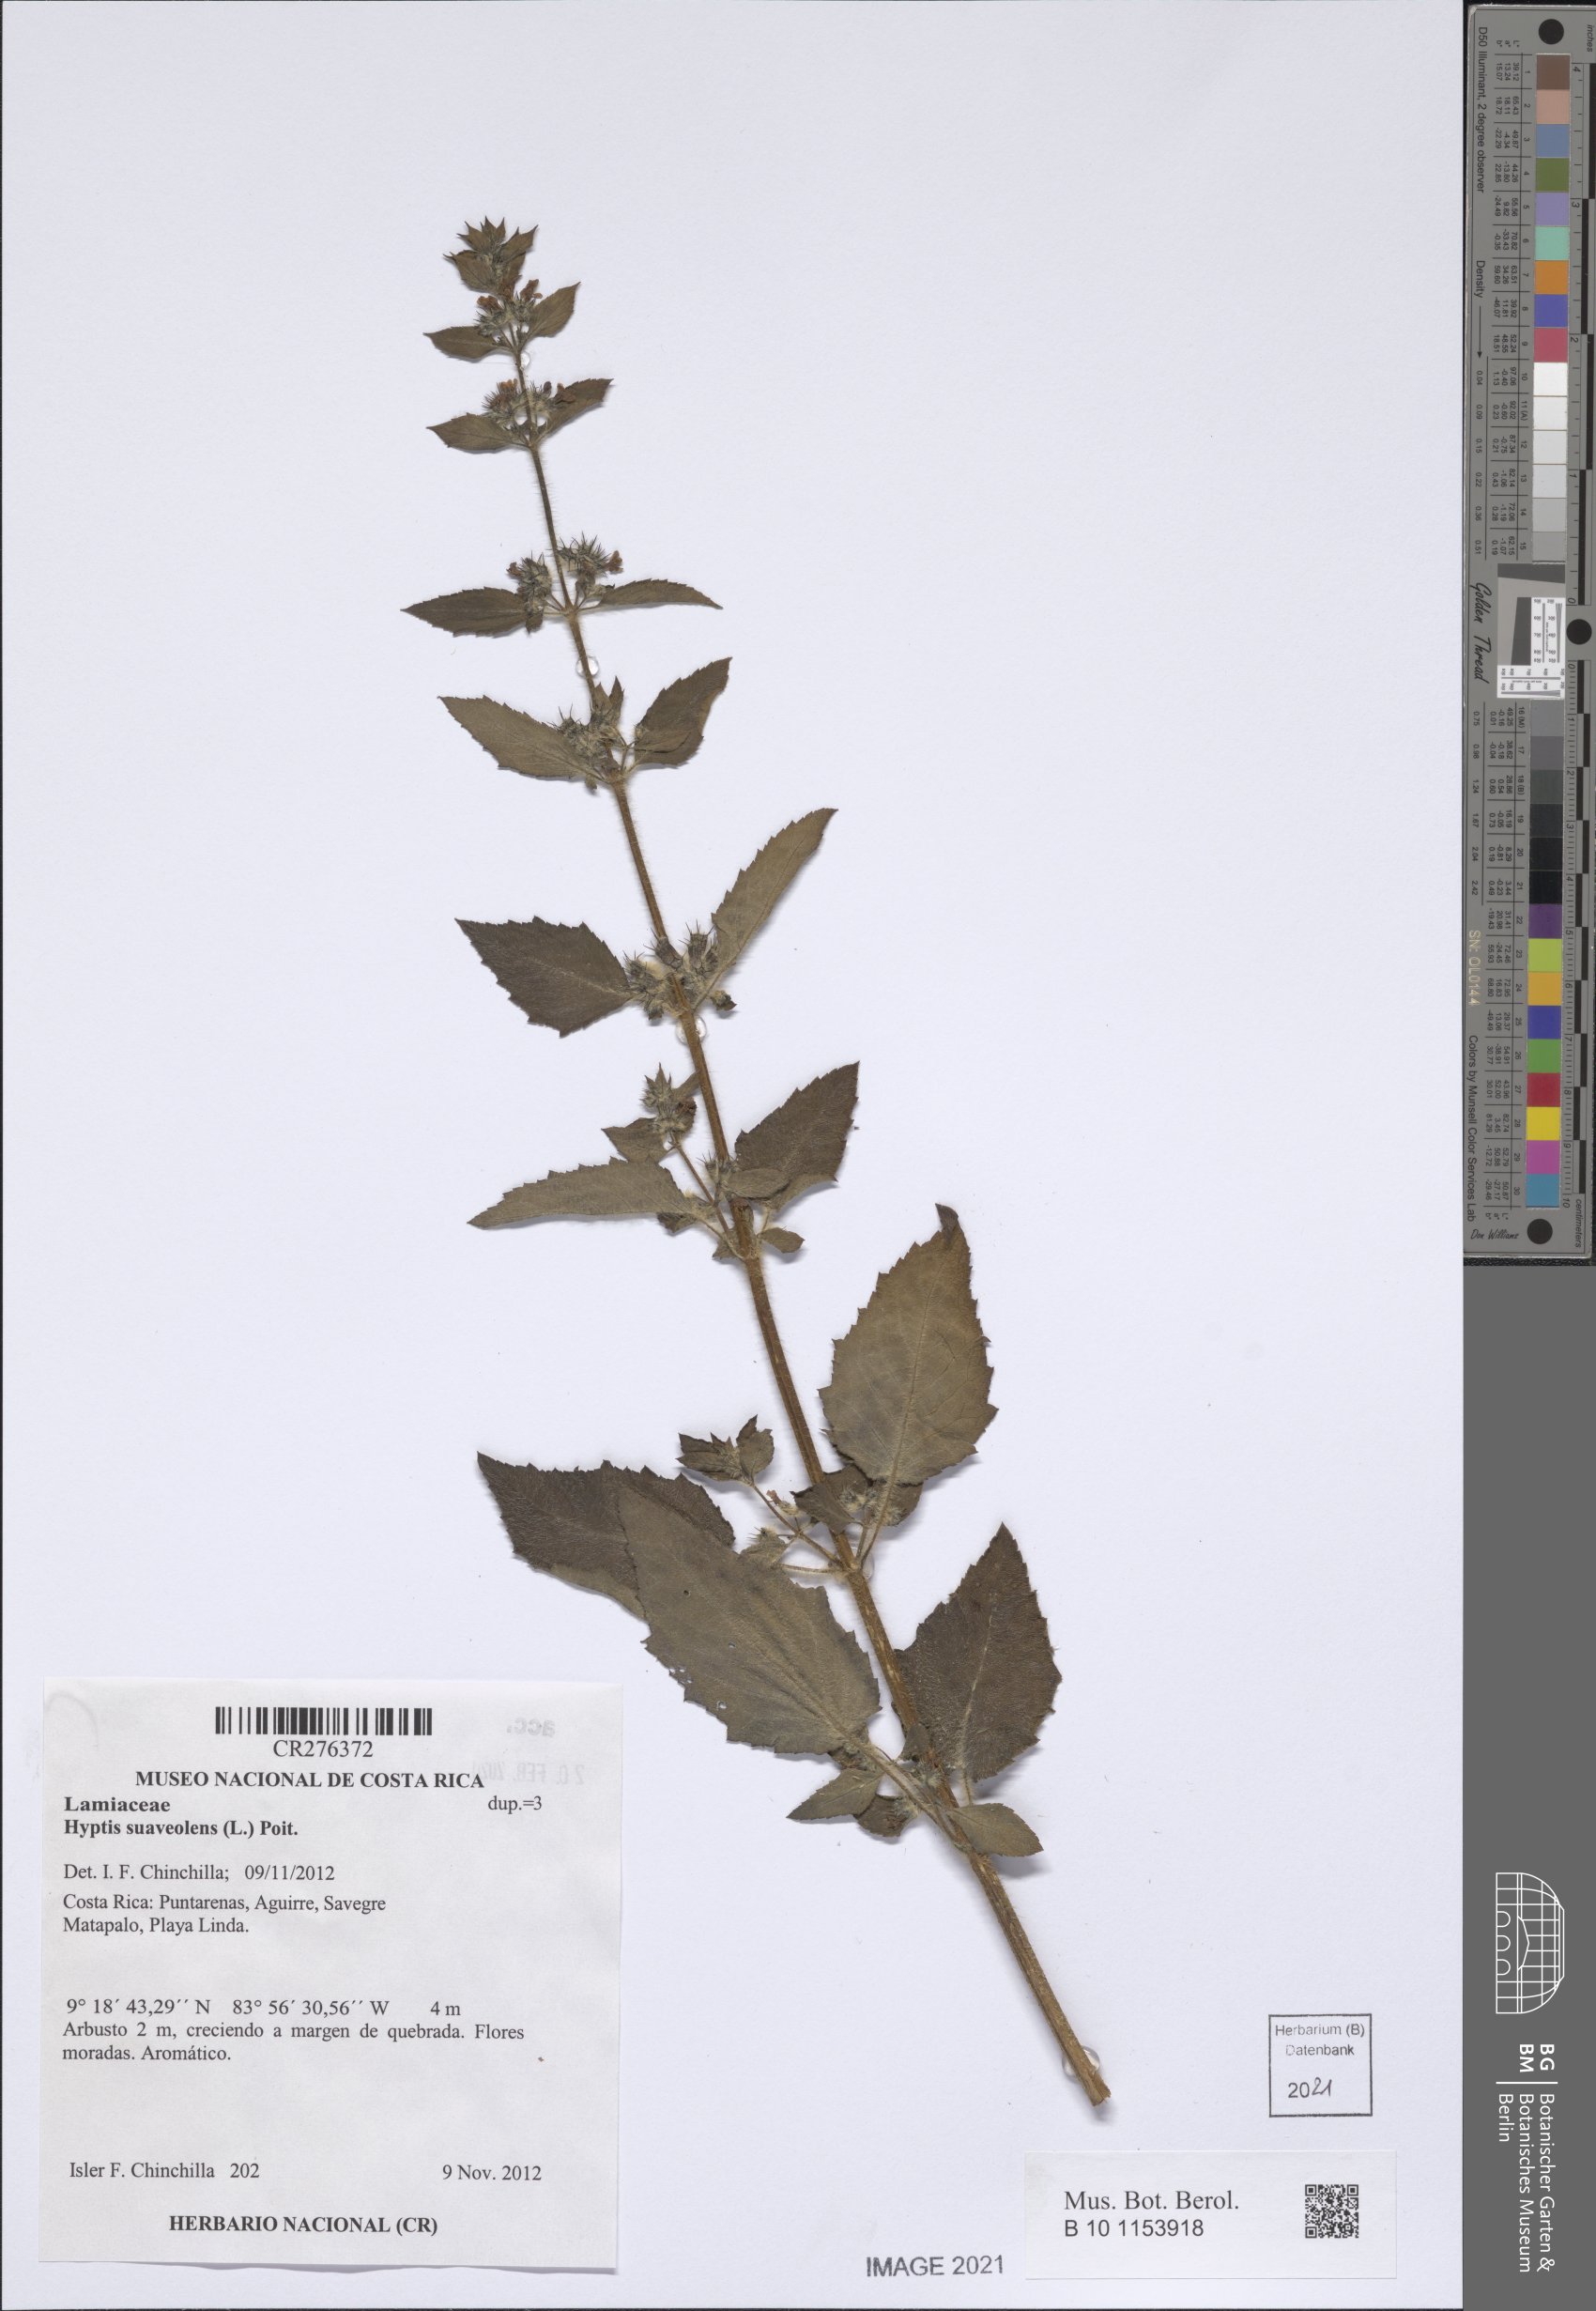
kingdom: Plantae
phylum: Tracheophyta
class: Magnoliopsida
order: Lamiales
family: Lamiaceae
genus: Mesosphaerum
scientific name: Mesosphaerum suaveolens
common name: Pignut
